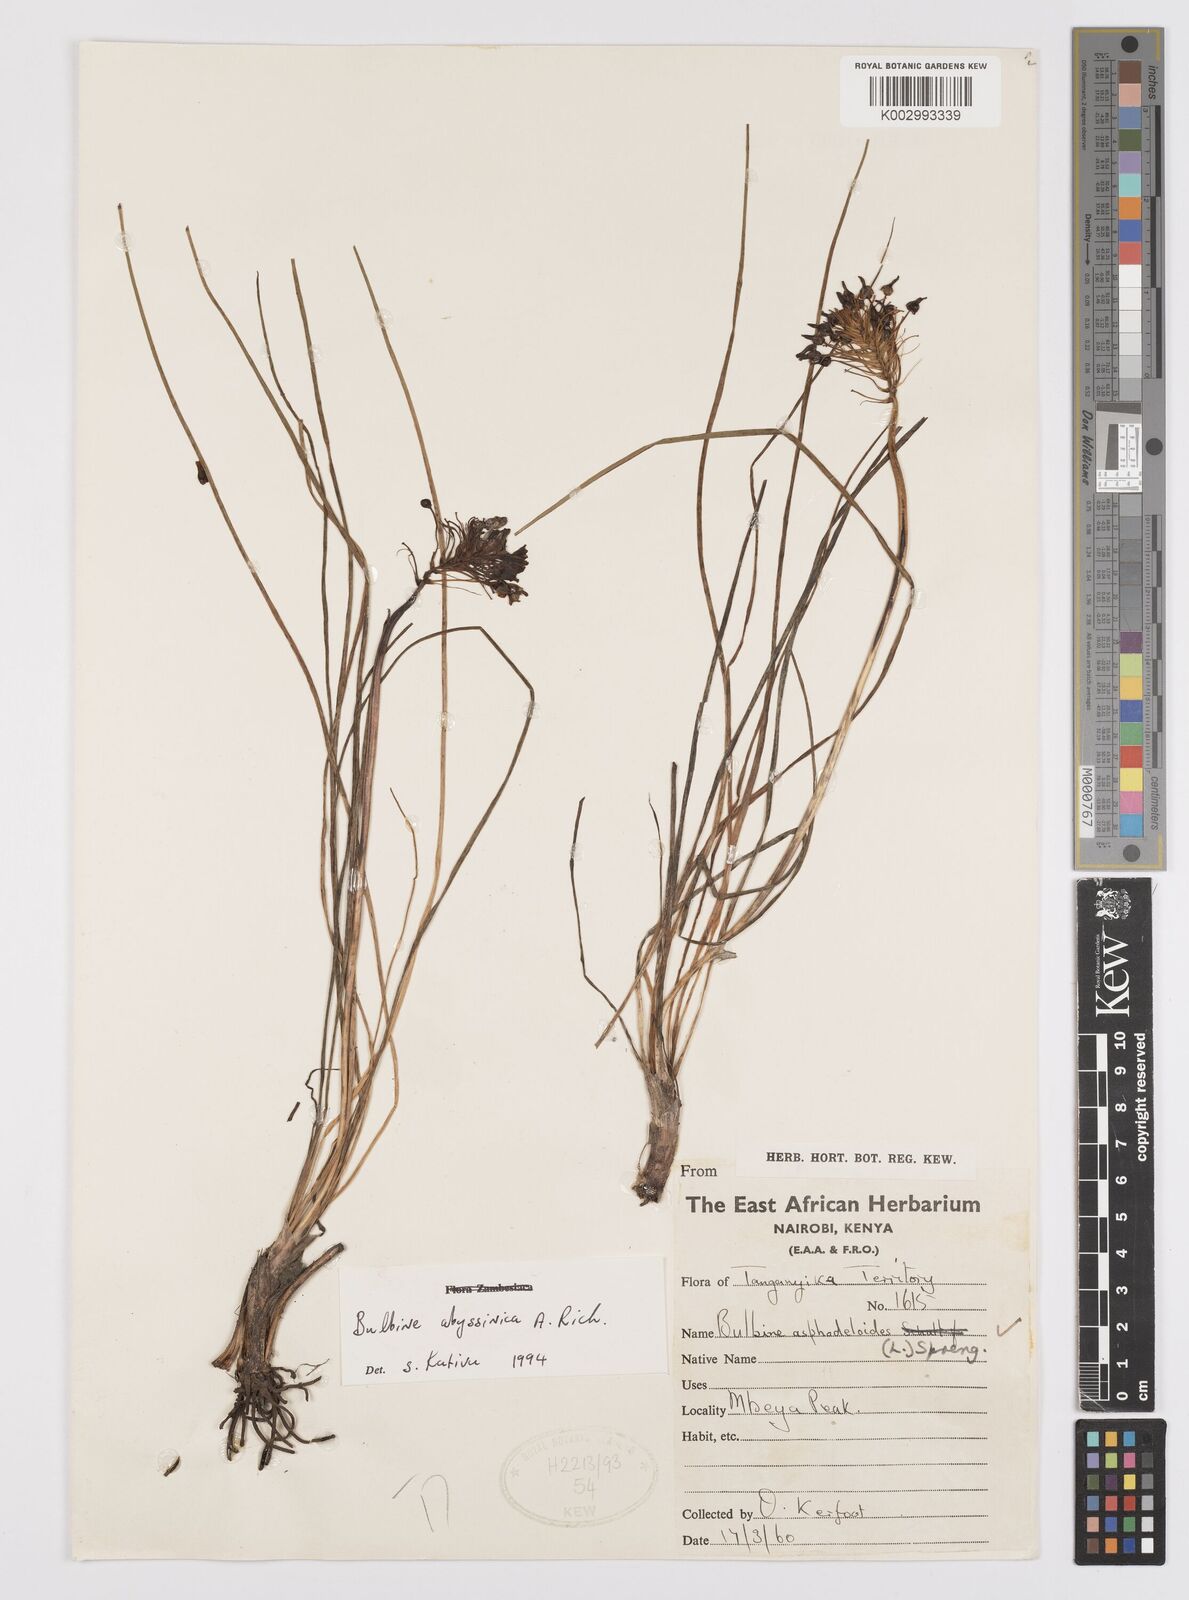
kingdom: Plantae
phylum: Tracheophyta
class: Liliopsida
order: Asparagales
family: Asphodelaceae
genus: Bulbine
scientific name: Bulbine abyssinica
